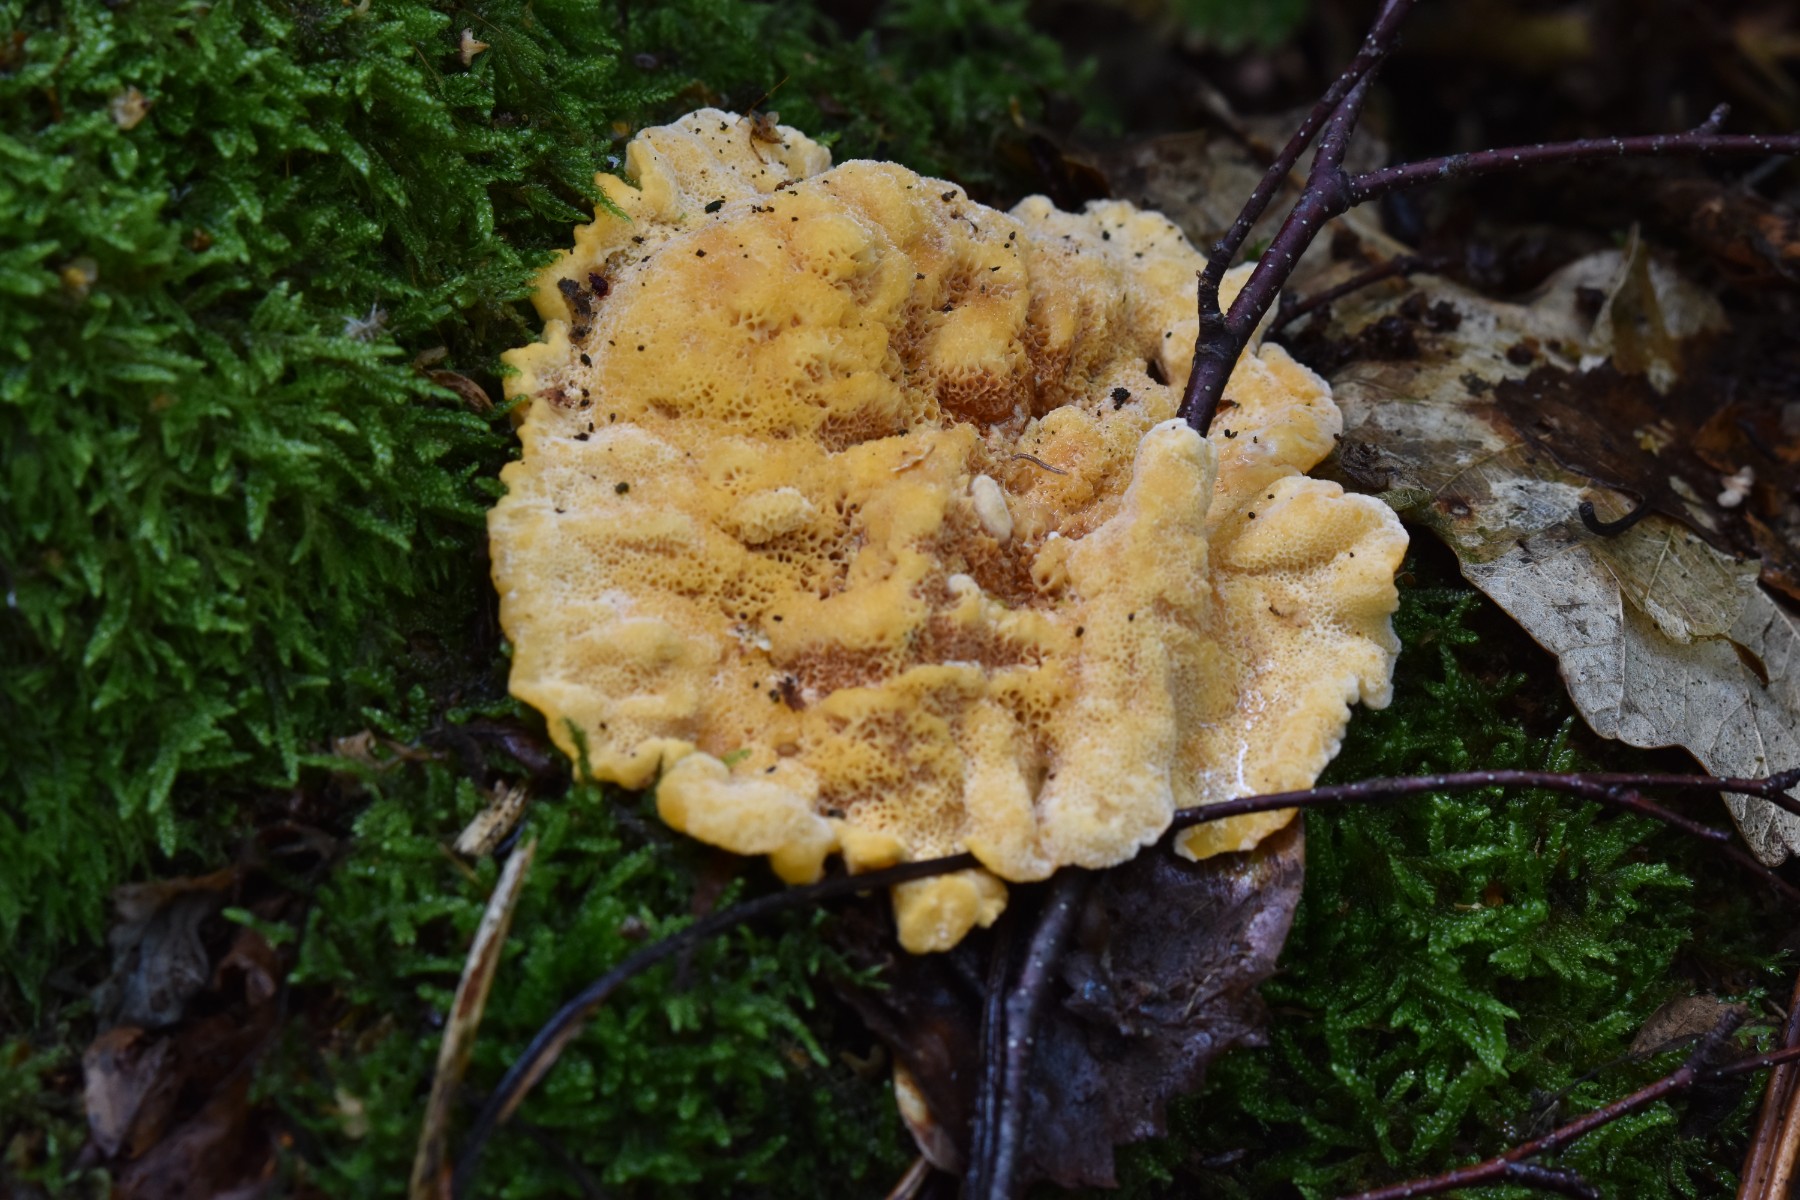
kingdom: Fungi
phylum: Basidiomycota
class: Agaricomycetes
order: Polyporales
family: Pycnoporellaceae
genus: Pycnoporellus
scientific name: Pycnoporellus fulgens
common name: flammeporesvamp
